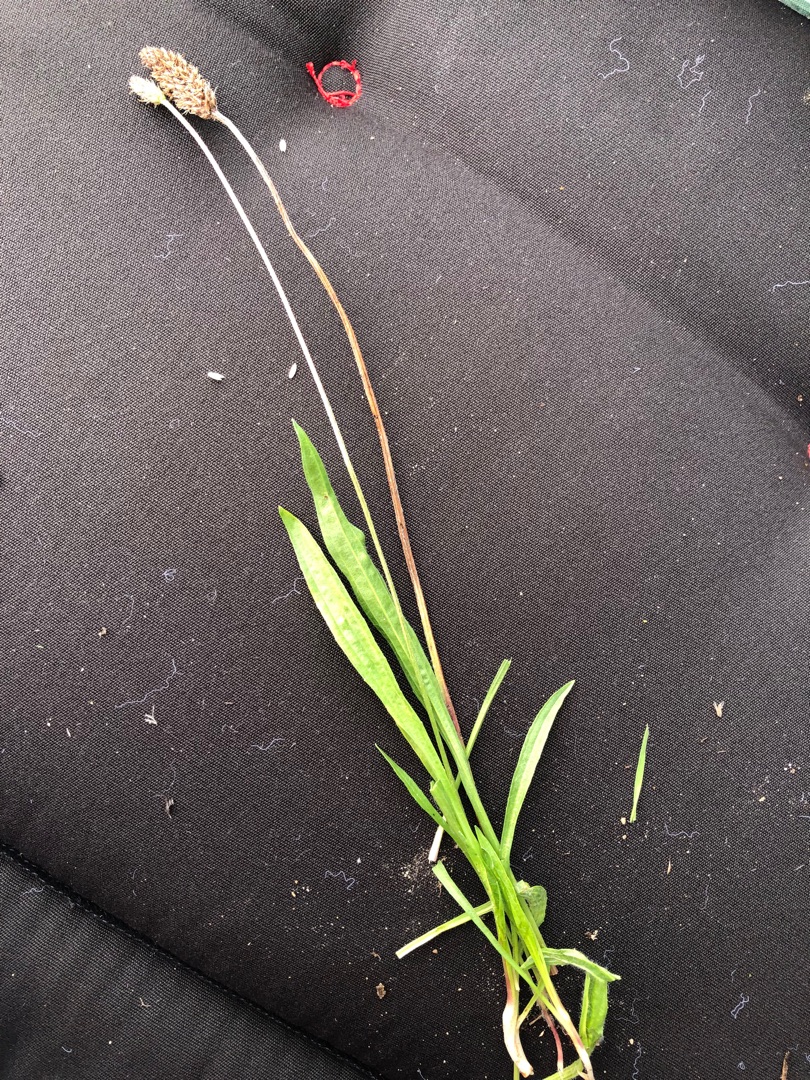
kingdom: Plantae
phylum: Tracheophyta
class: Magnoliopsida
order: Lamiales
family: Plantaginaceae
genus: Plantago
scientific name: Plantago lanceolata
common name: Lancet-vejbred
